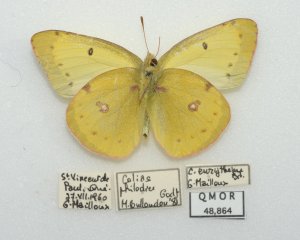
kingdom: Animalia
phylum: Arthropoda
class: Insecta
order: Lepidoptera
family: Pieridae
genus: Colias
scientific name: Colias philodice
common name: Clouded Sulphur
